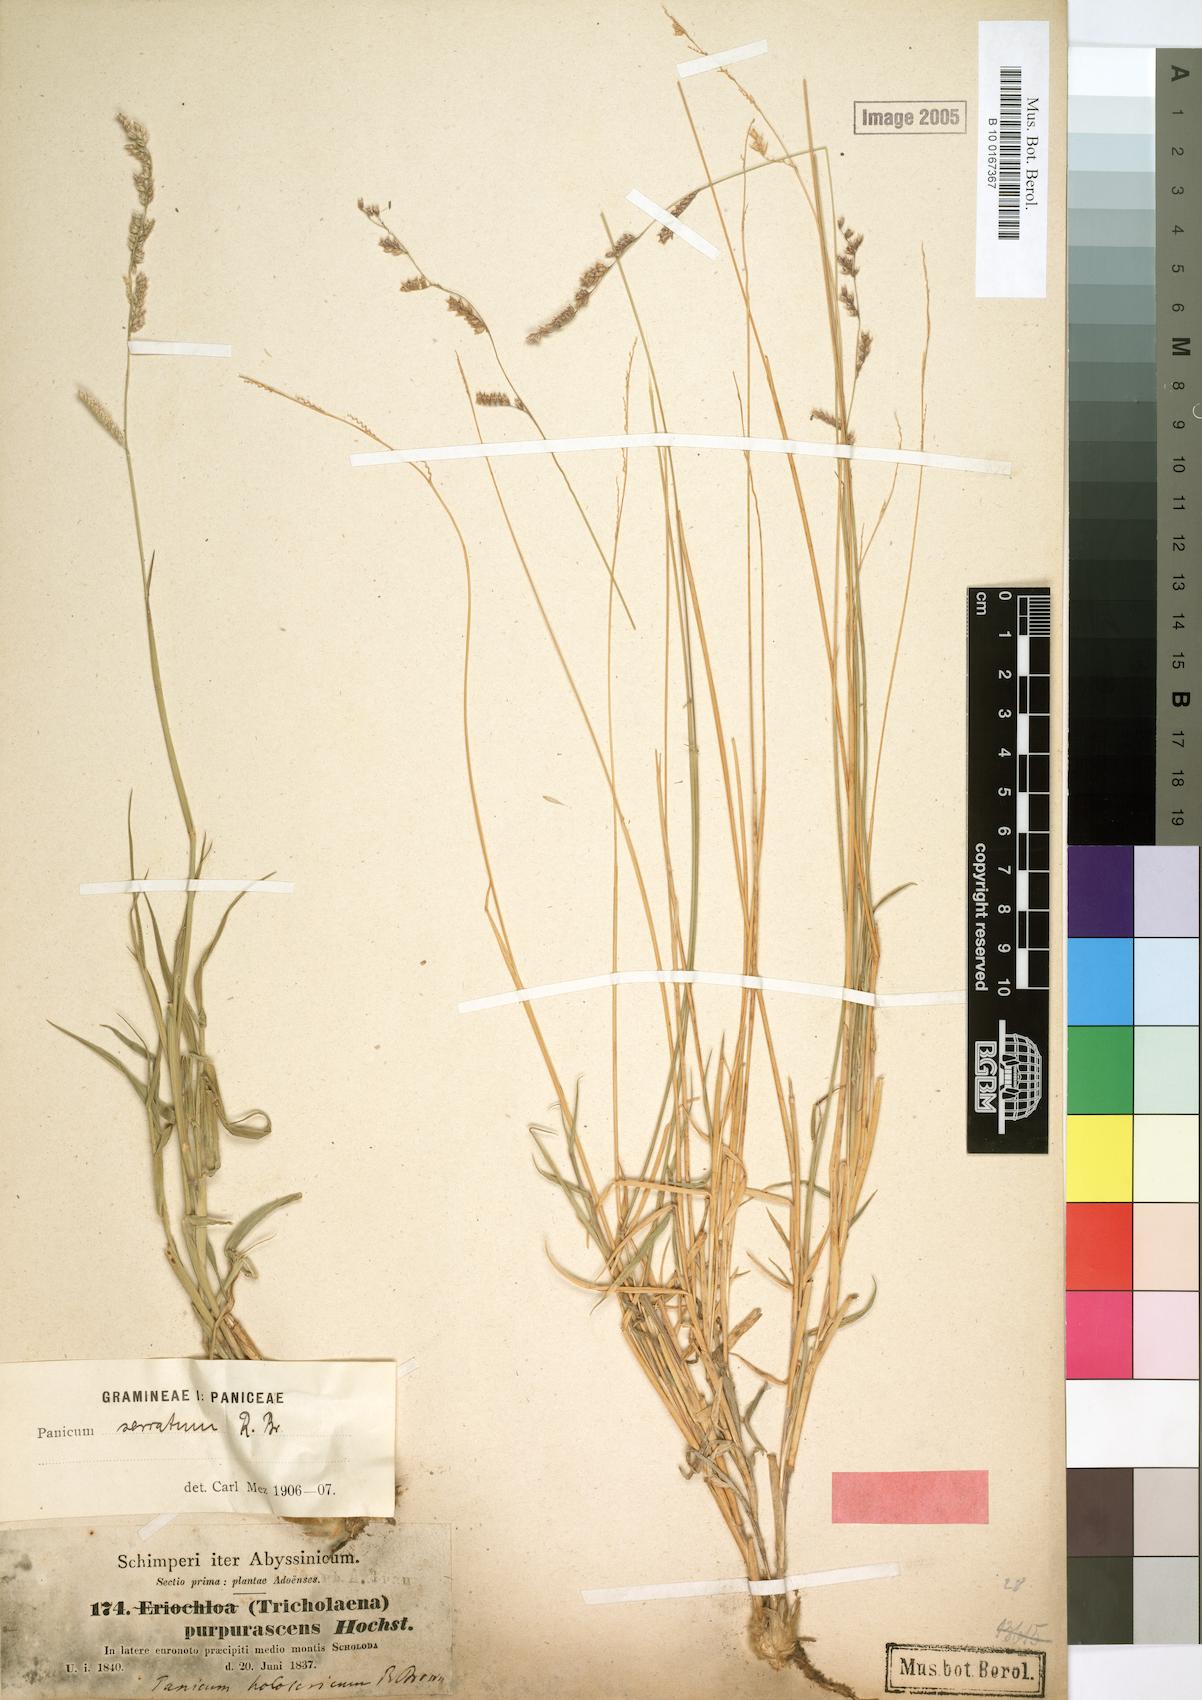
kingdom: Plantae
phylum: Tracheophyta
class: Liliopsida
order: Poales
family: Poaceae
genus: Urochloa
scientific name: Urochloa serrata
